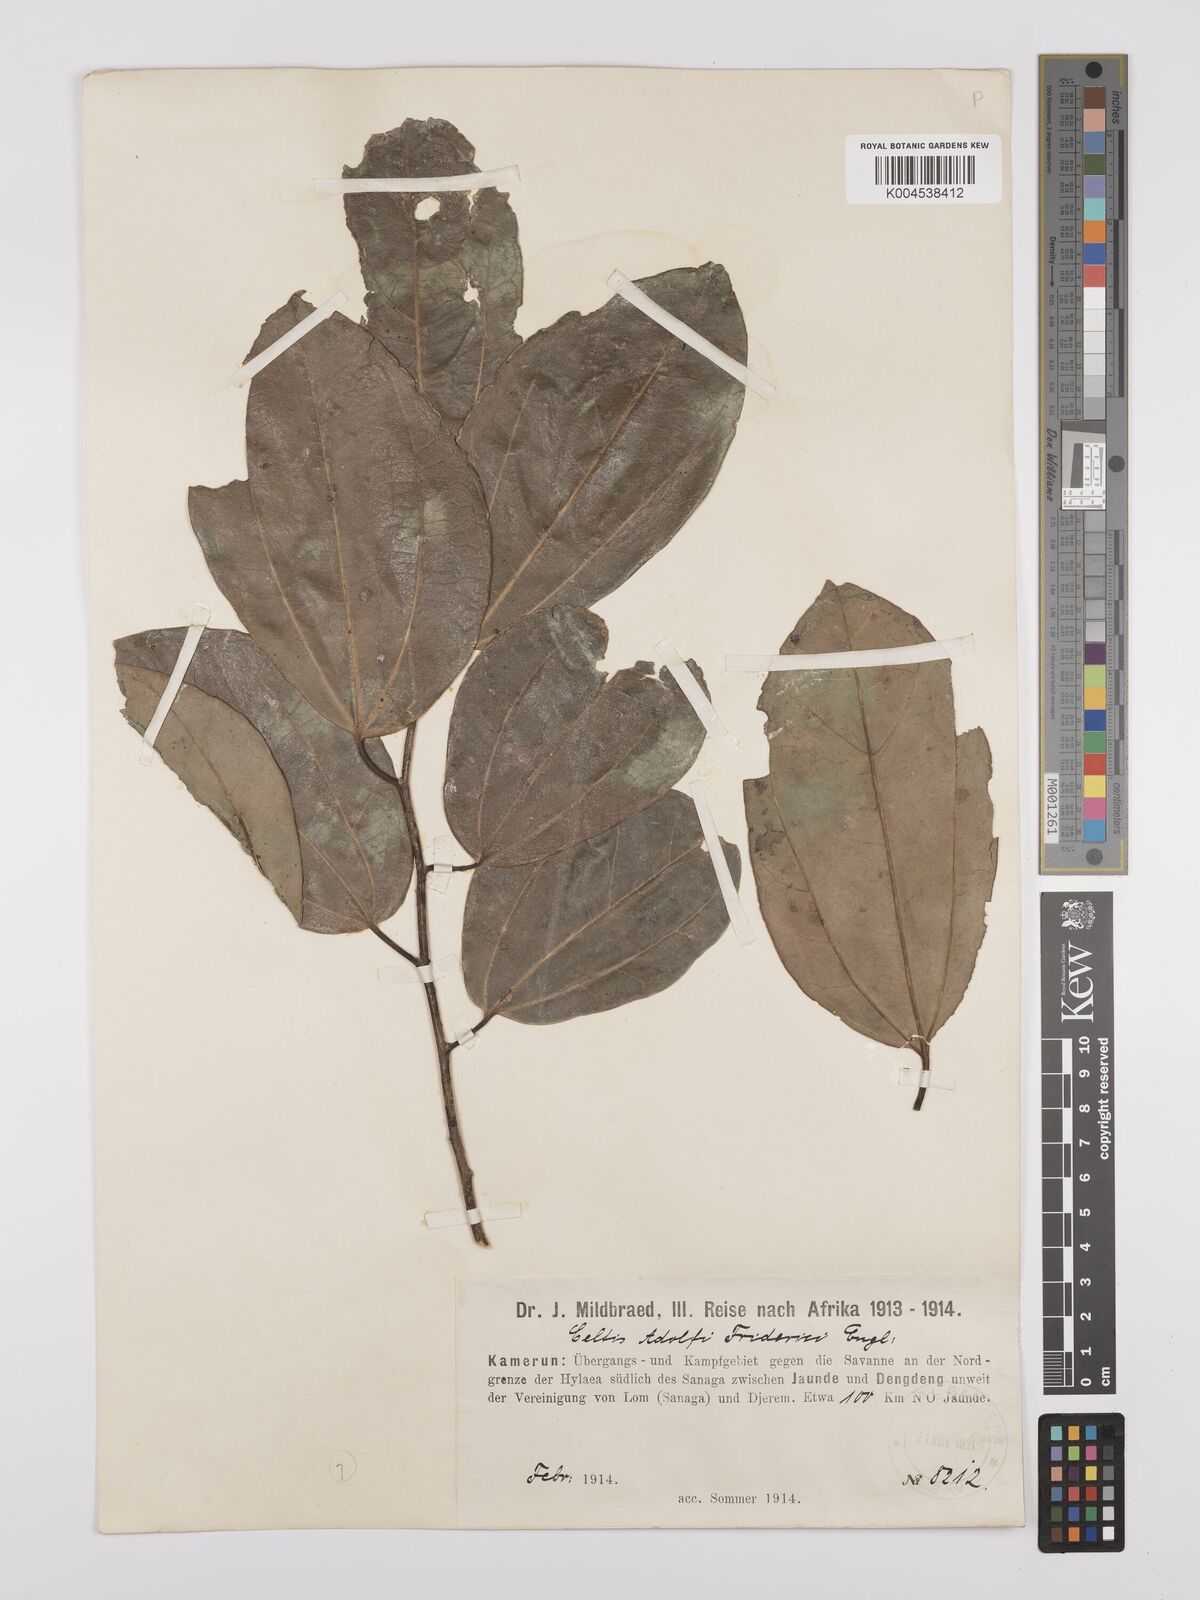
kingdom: Plantae
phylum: Tracheophyta
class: Magnoliopsida
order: Rosales
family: Cannabaceae
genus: Celtis
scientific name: Celtis adolfi-friderici
